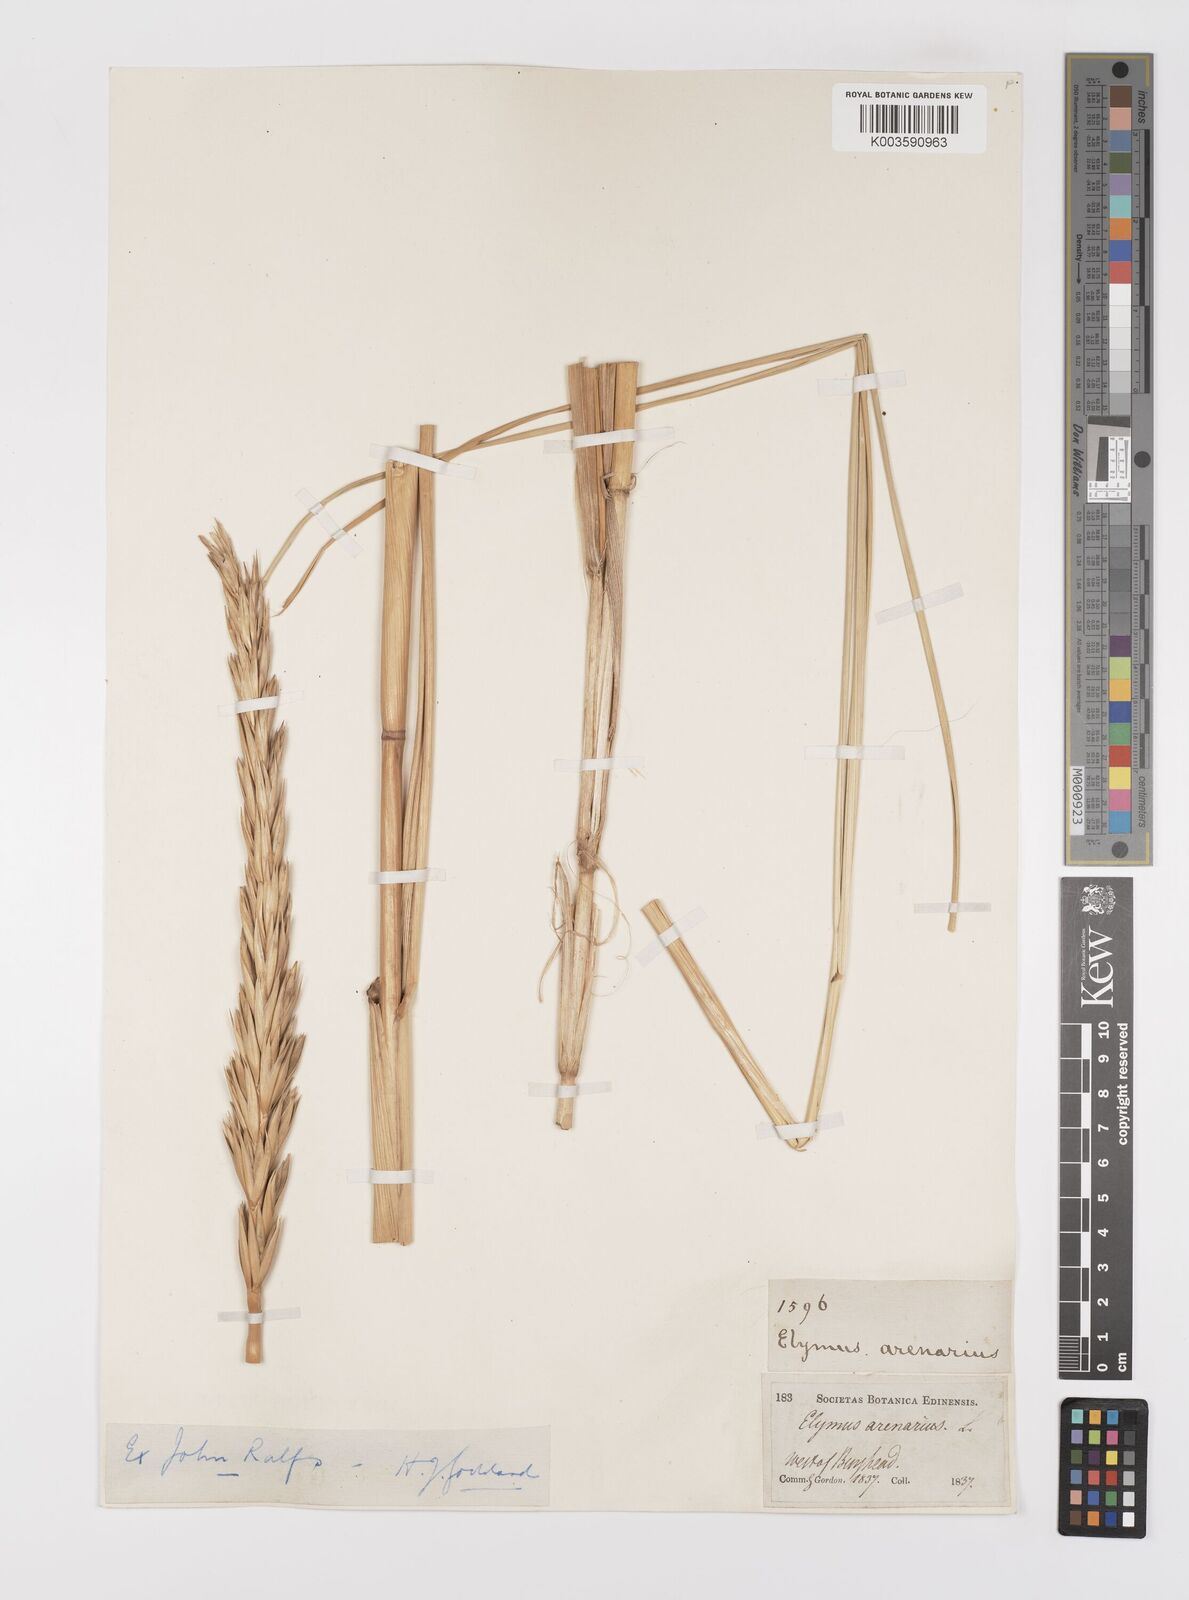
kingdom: Plantae
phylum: Tracheophyta
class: Liliopsida
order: Poales
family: Poaceae
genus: Leymus
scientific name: Leymus arenarius
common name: Lyme-grass
